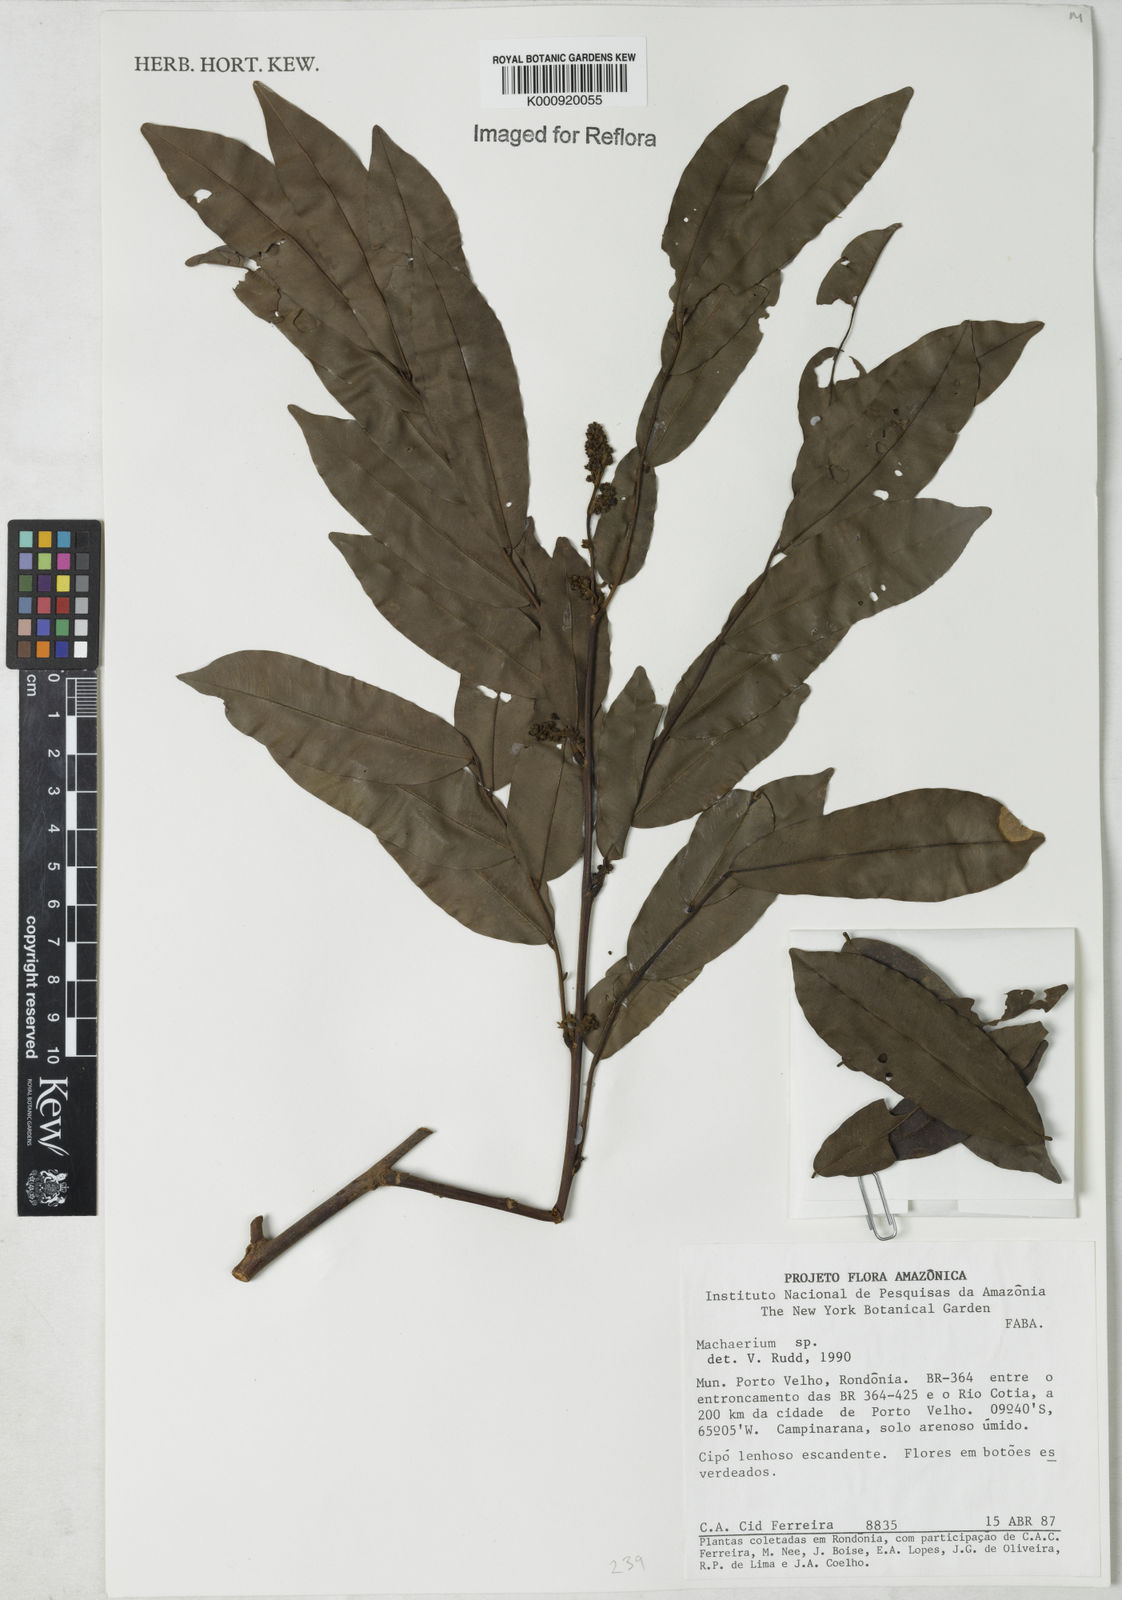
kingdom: Plantae
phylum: Tracheophyta
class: Magnoliopsida
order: Fabales
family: Fabaceae
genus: Machaerium
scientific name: Machaerium
